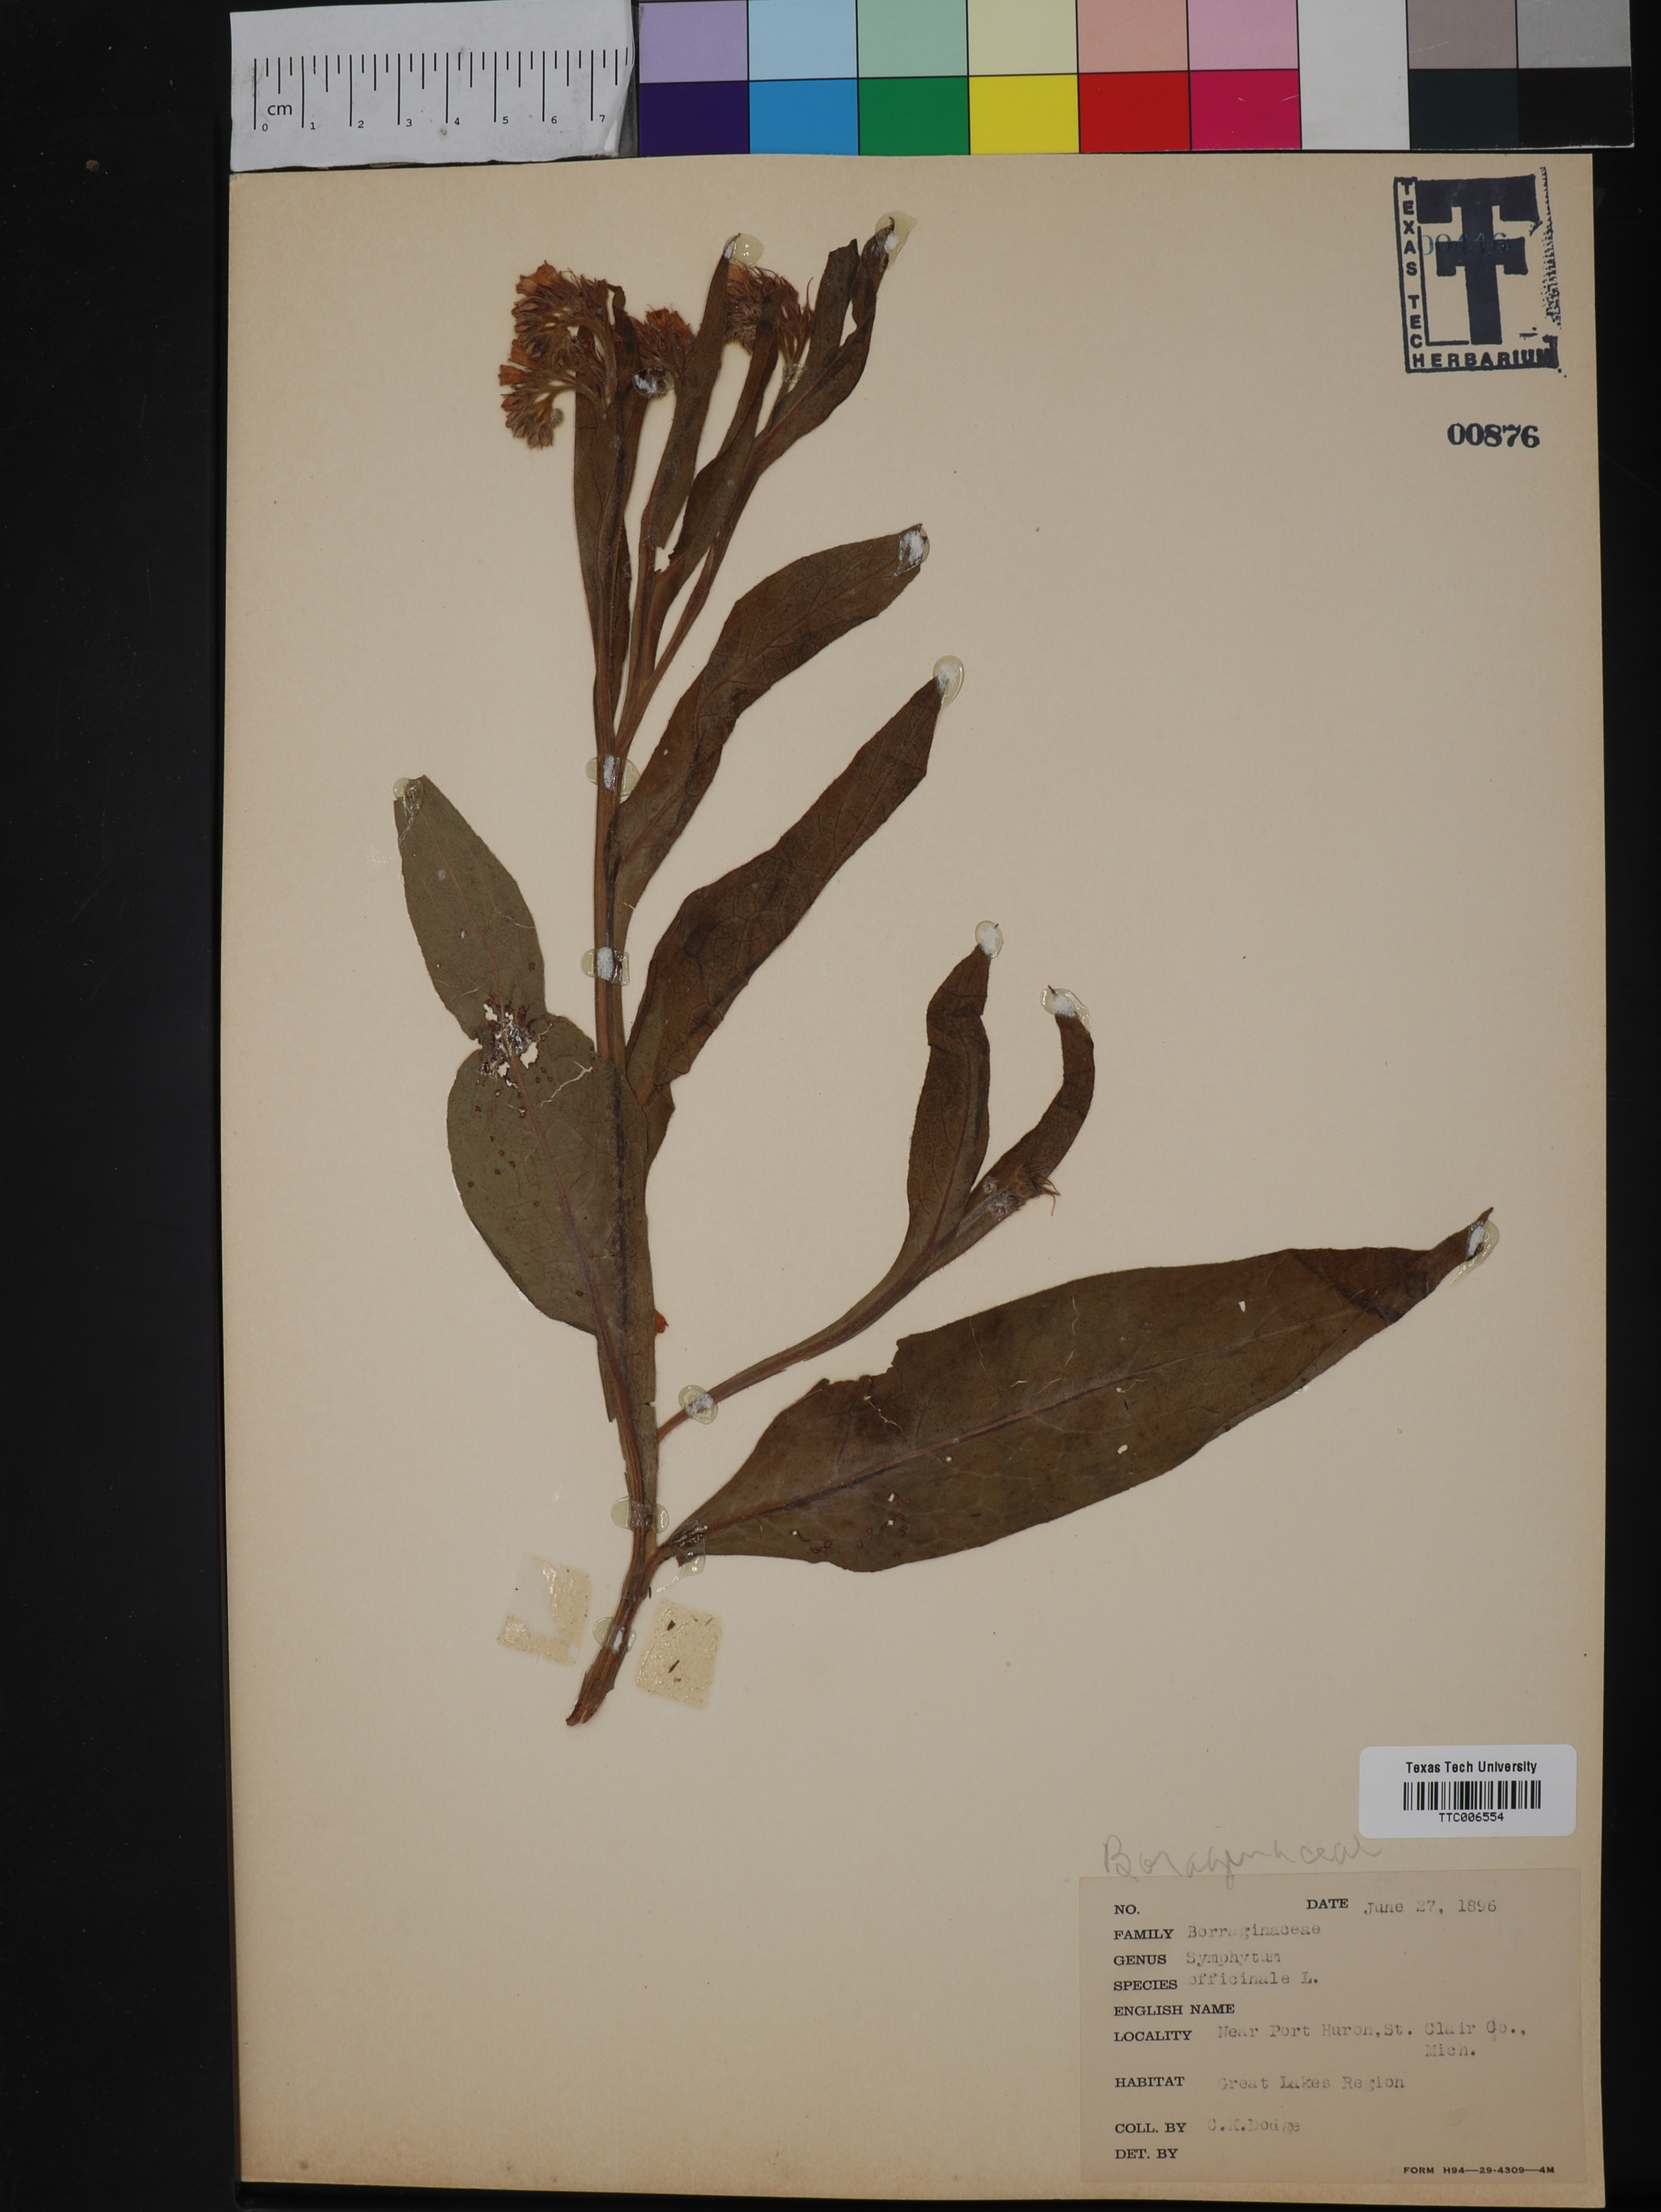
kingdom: Plantae
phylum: Tracheophyta
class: Magnoliopsida
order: Boraginales
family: Boraginaceae
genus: Symphytum
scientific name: Symphytum officinale
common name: Common comfrey
